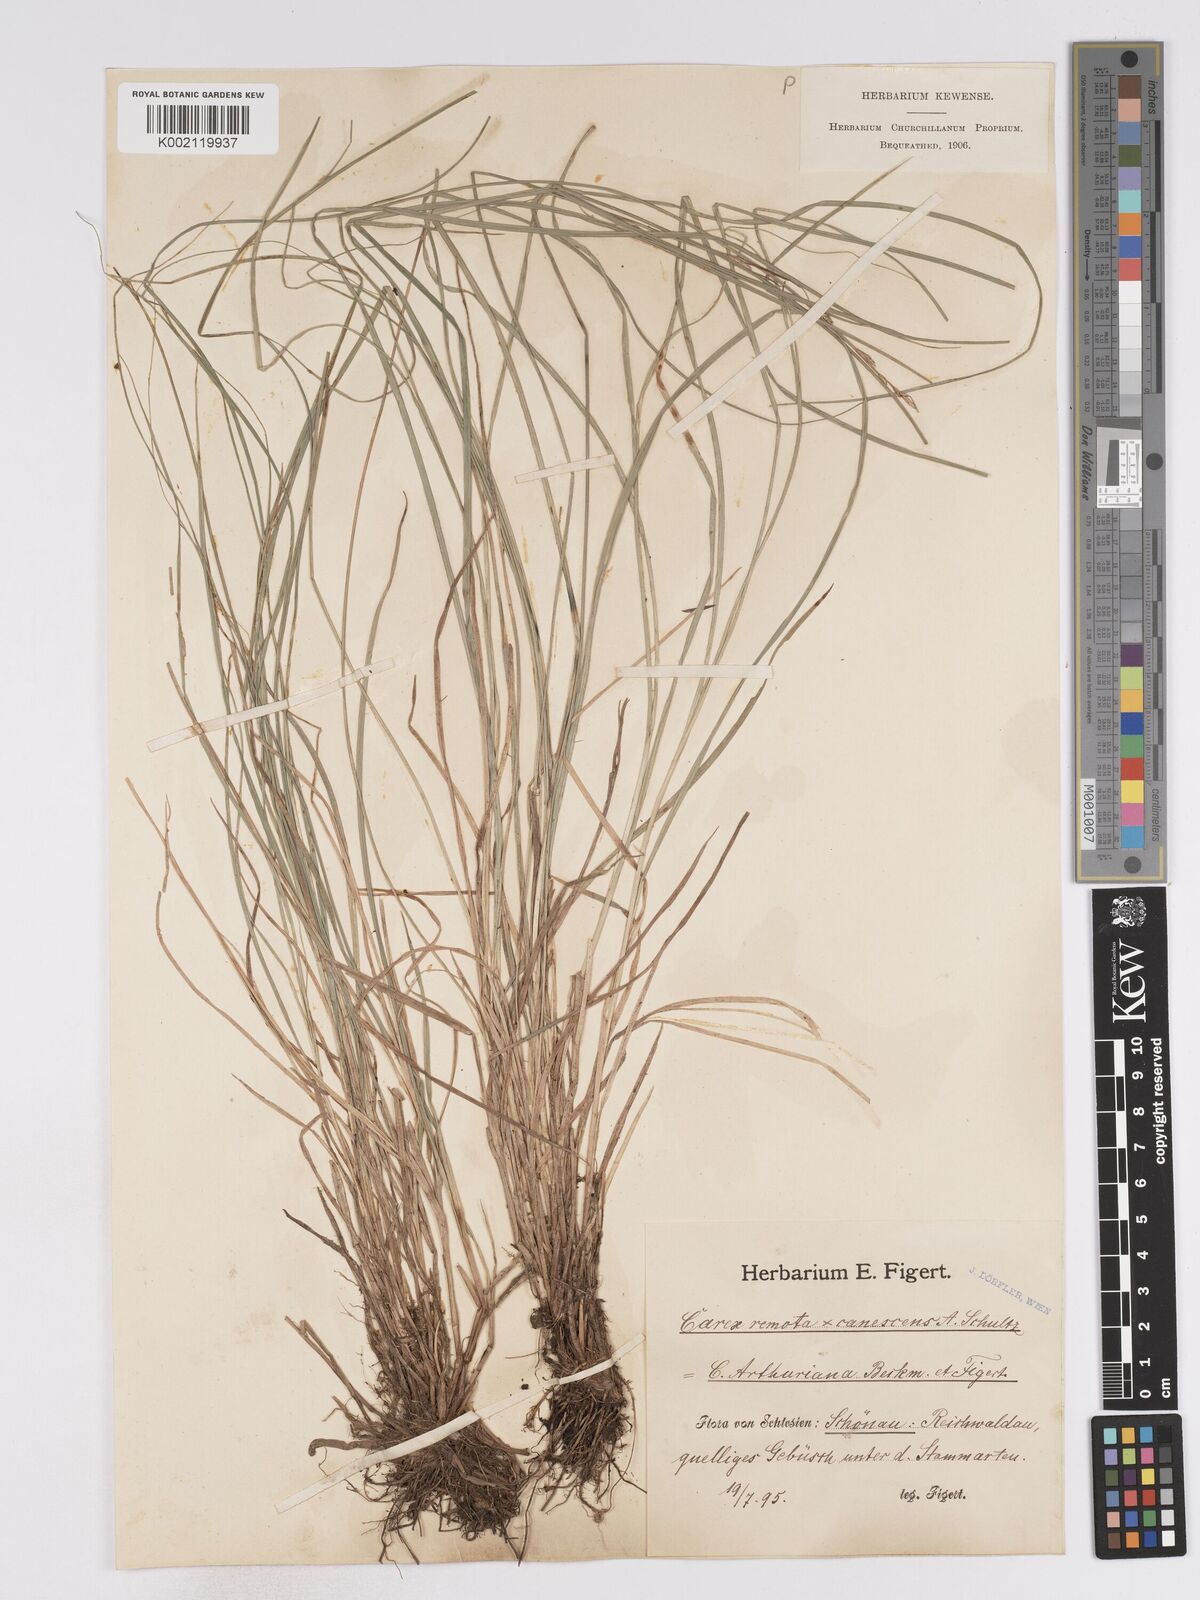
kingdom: Plantae
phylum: Tracheophyta
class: Liliopsida
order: Poales
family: Cyperaceae
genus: Carex
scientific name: Carex curta
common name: White sedge
